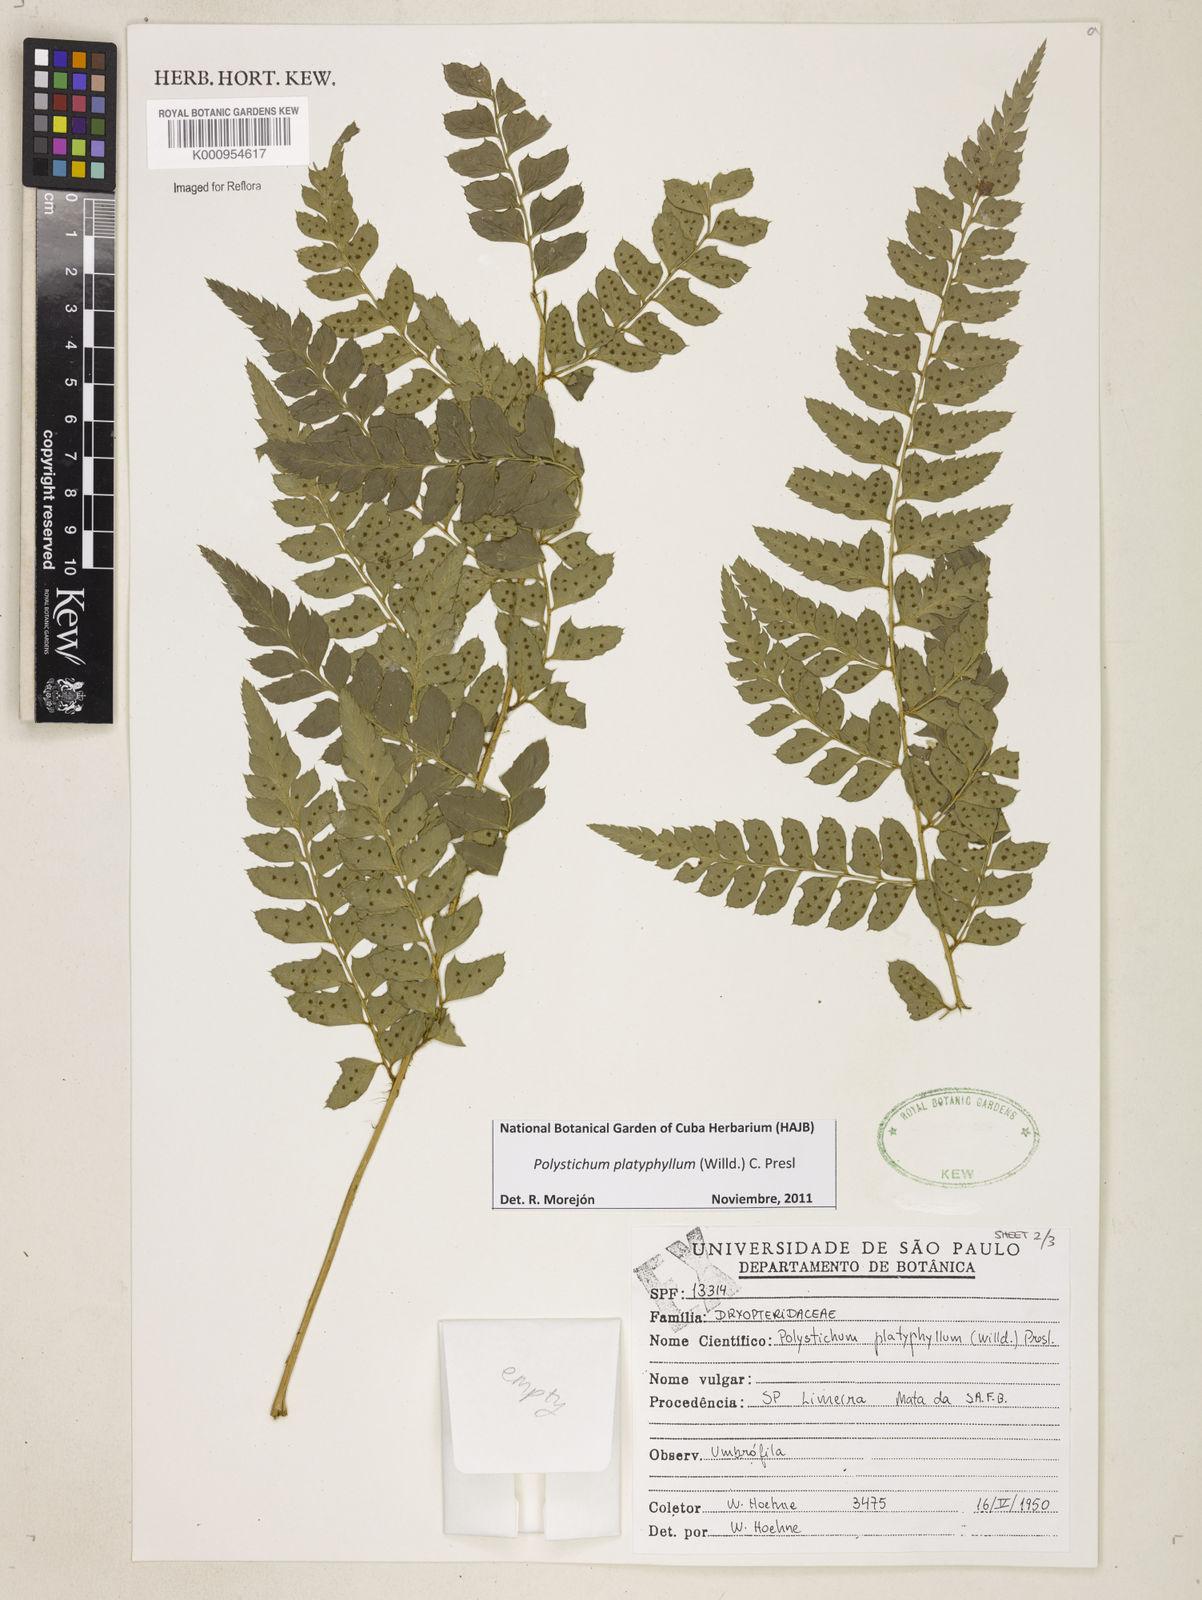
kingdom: Plantae
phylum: Tracheophyta
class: Polypodiopsida
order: Polypodiales
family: Dryopteridaceae
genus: Polystichum
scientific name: Polystichum platyphyllum
